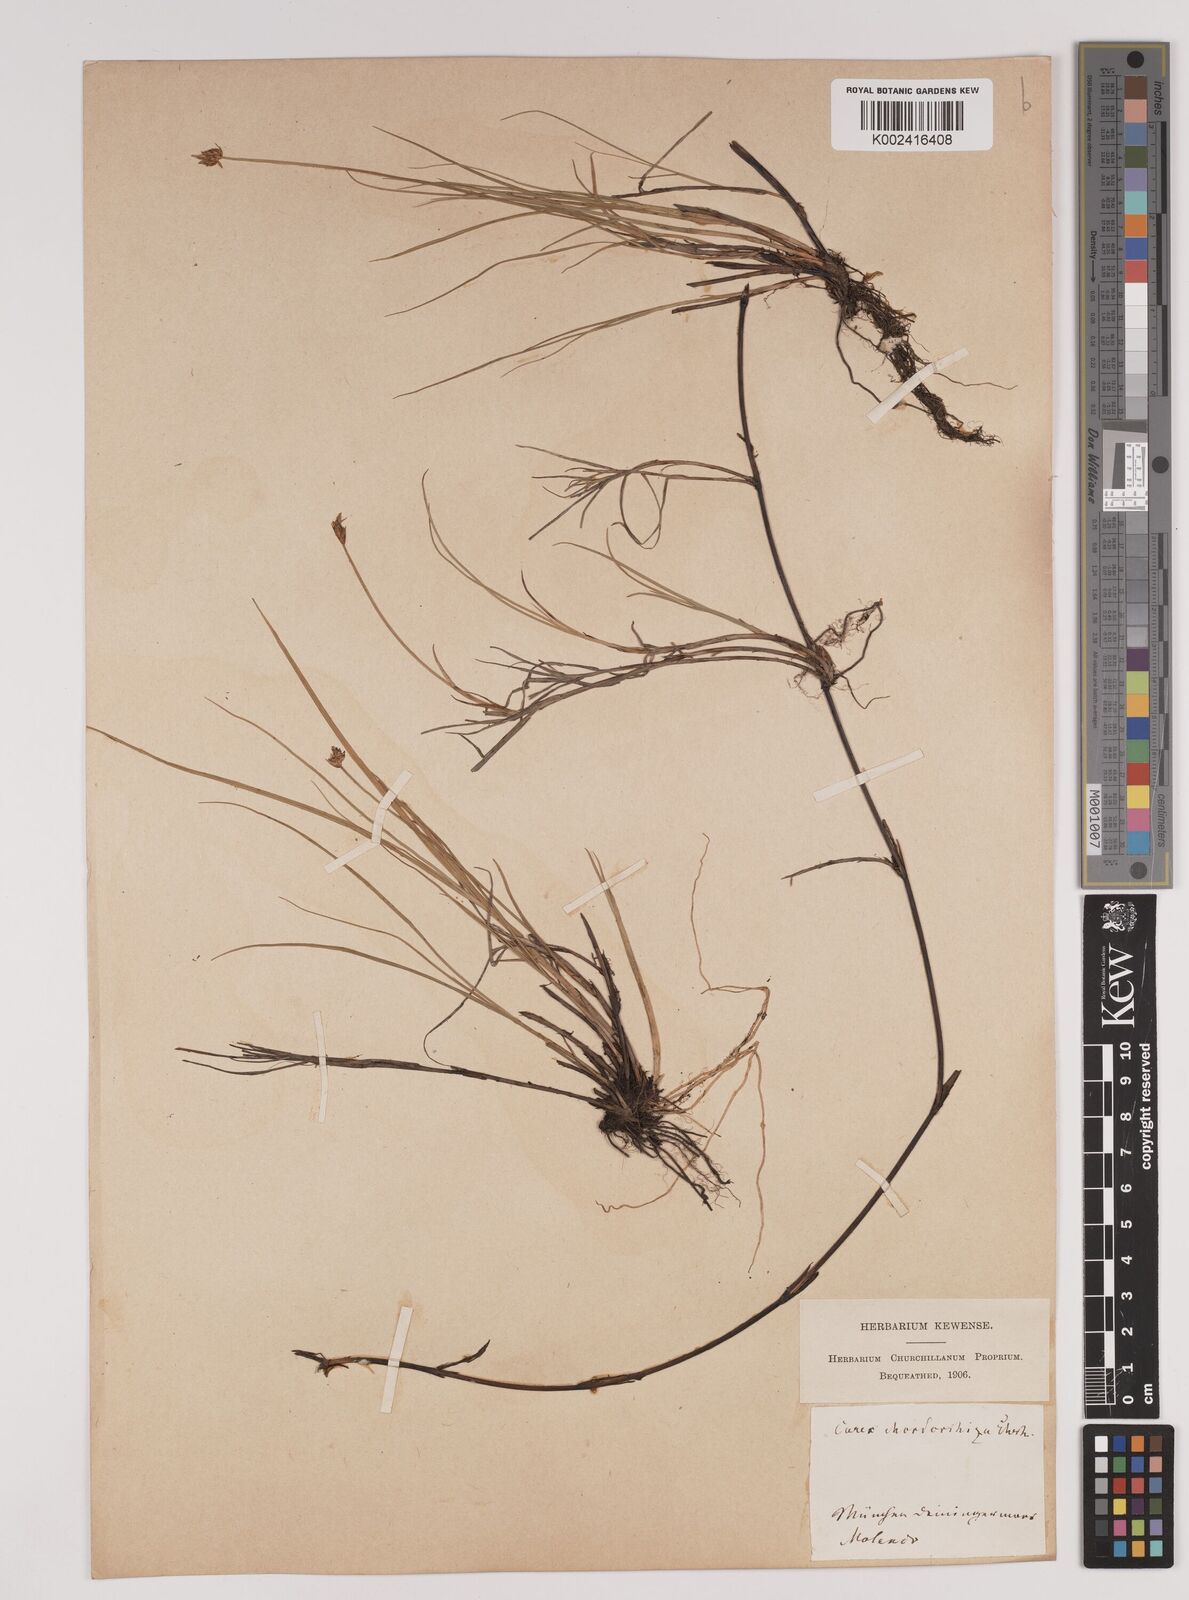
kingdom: Plantae
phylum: Tracheophyta
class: Liliopsida
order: Poales
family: Cyperaceae
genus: Carex
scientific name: Carex chordorrhiza
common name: String sedge
